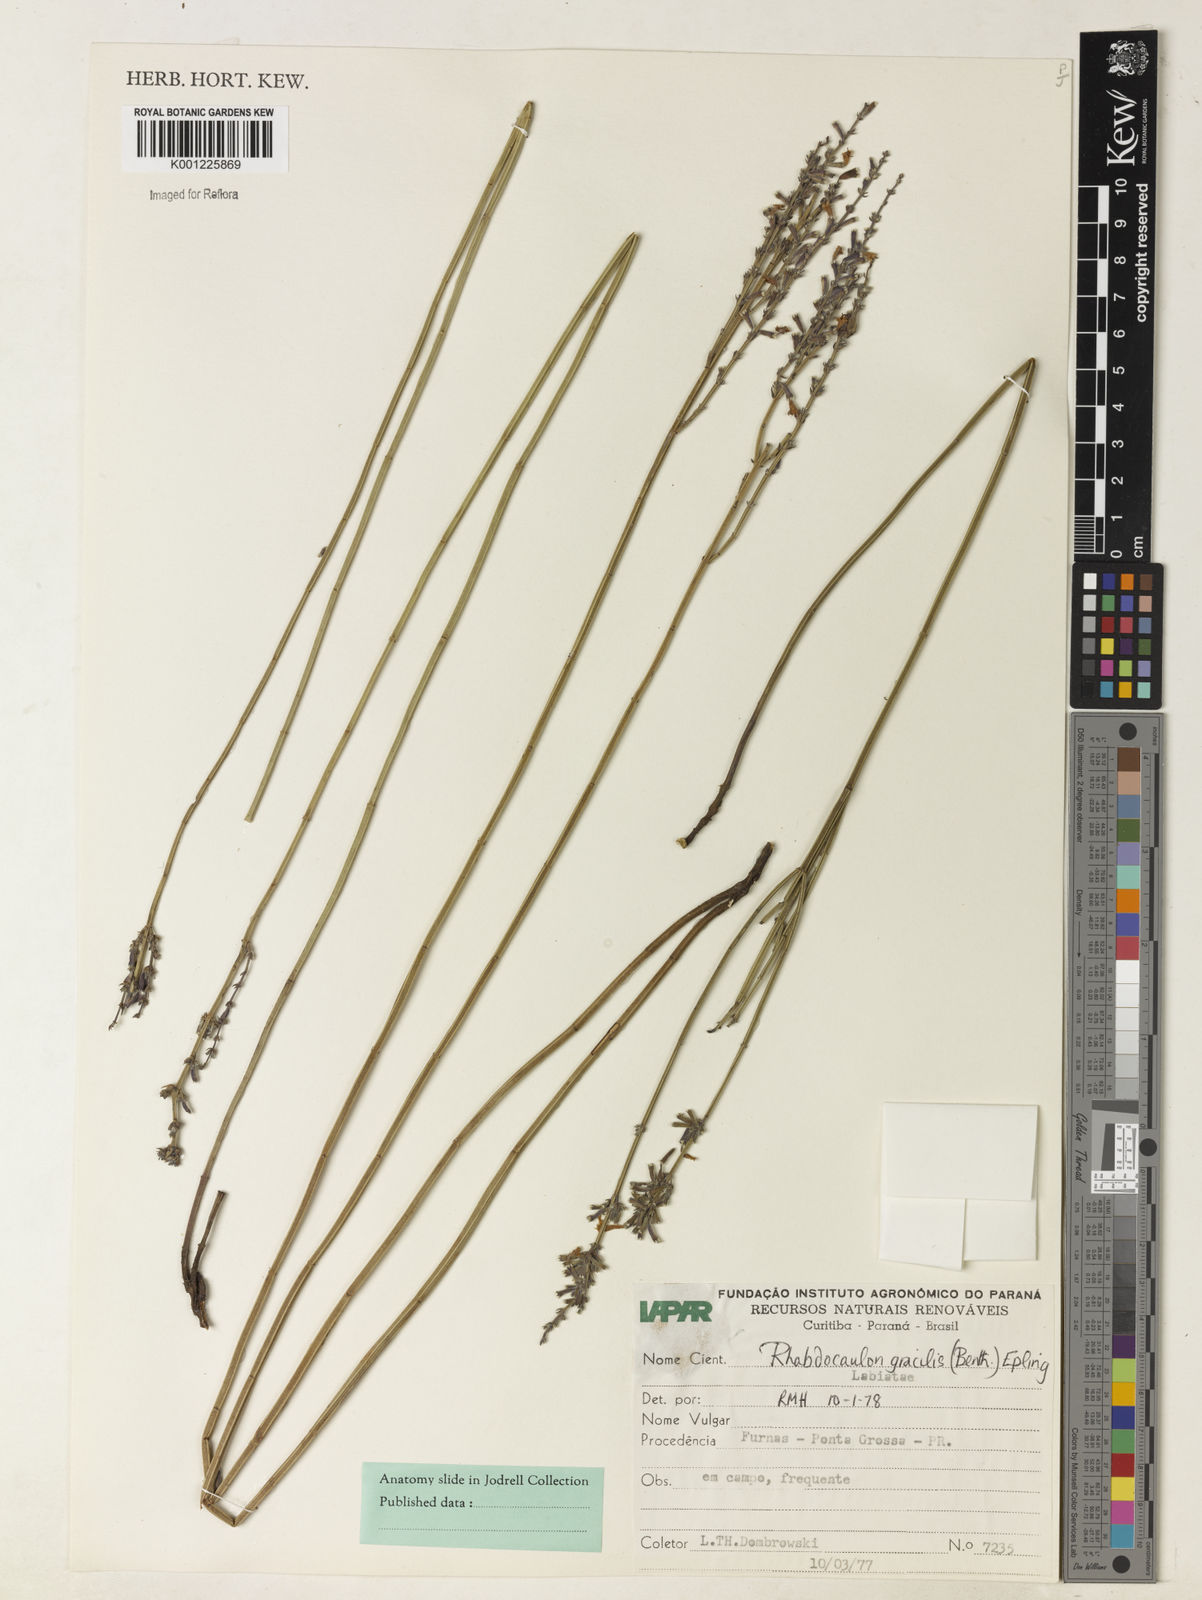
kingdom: Plantae
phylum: Tracheophyta
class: Magnoliopsida
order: Lamiales
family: Lamiaceae
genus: Rhabdocaulon
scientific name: Rhabdocaulon gracile
